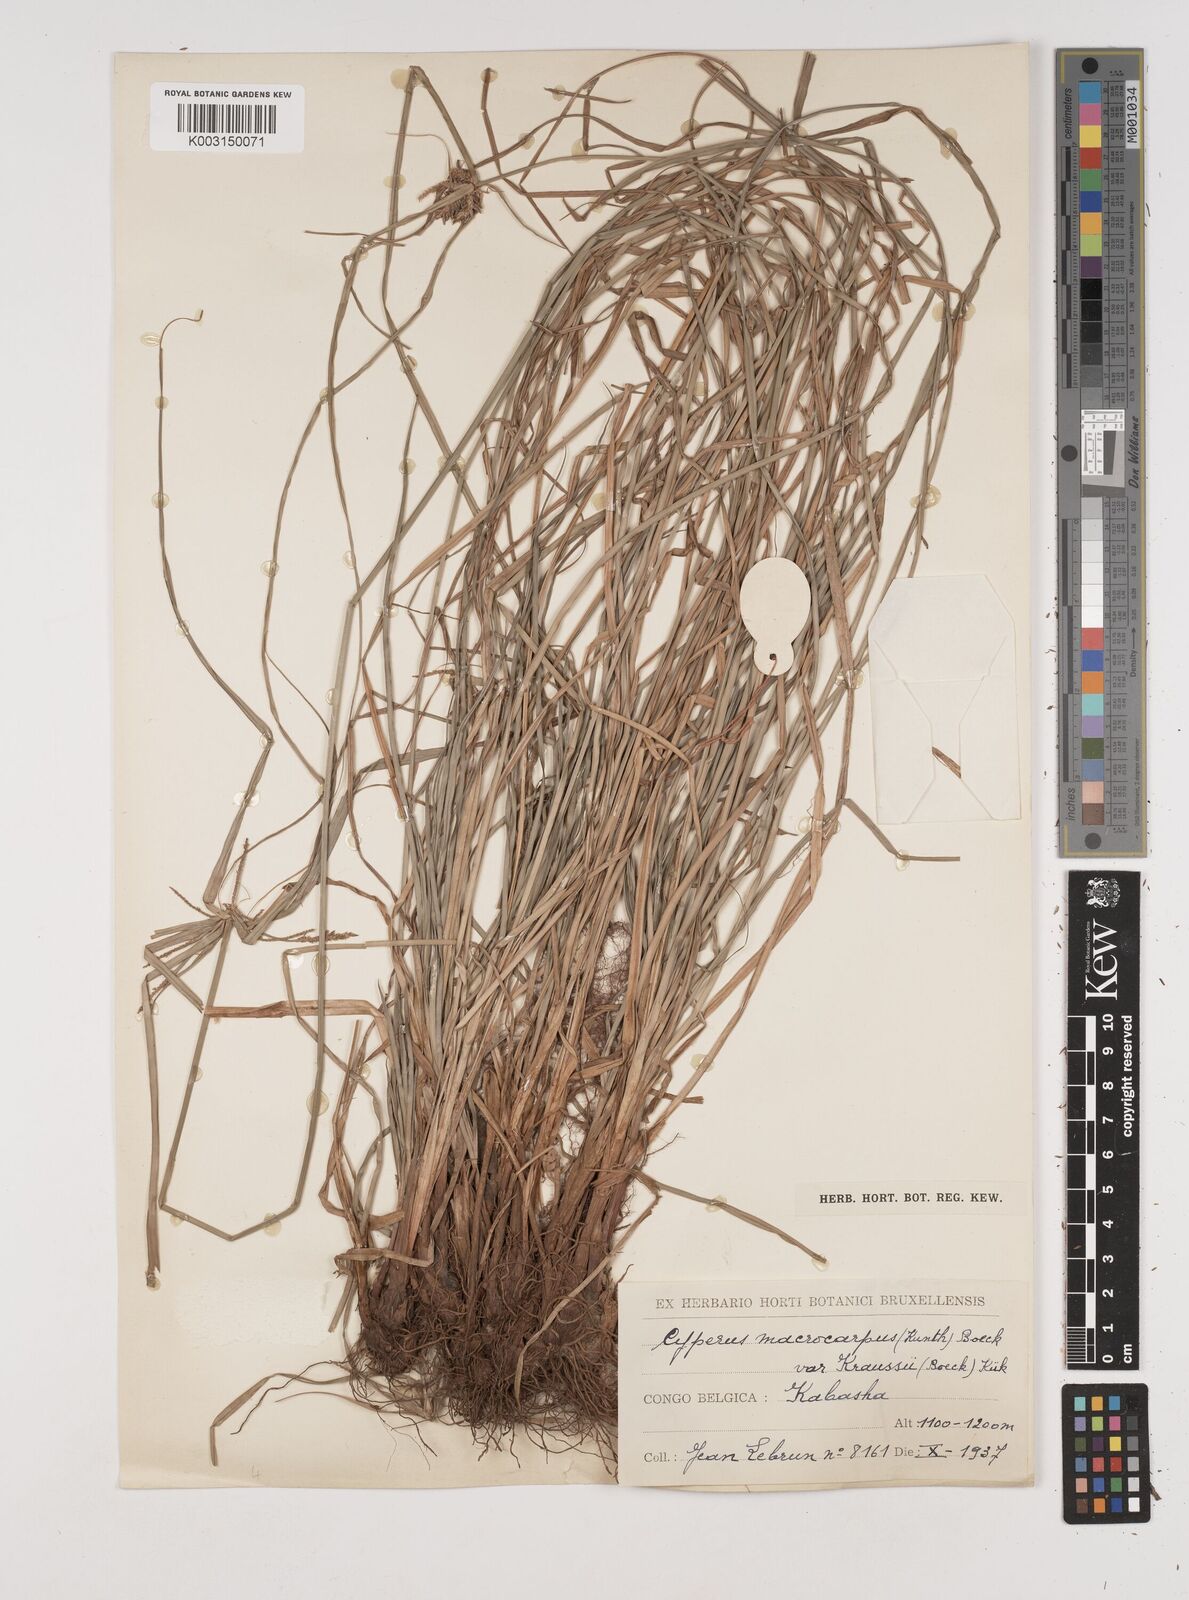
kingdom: Plantae
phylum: Tracheophyta
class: Liliopsida
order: Poales
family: Cyperaceae
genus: Cyperus
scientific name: Cyperus macrocarpus
